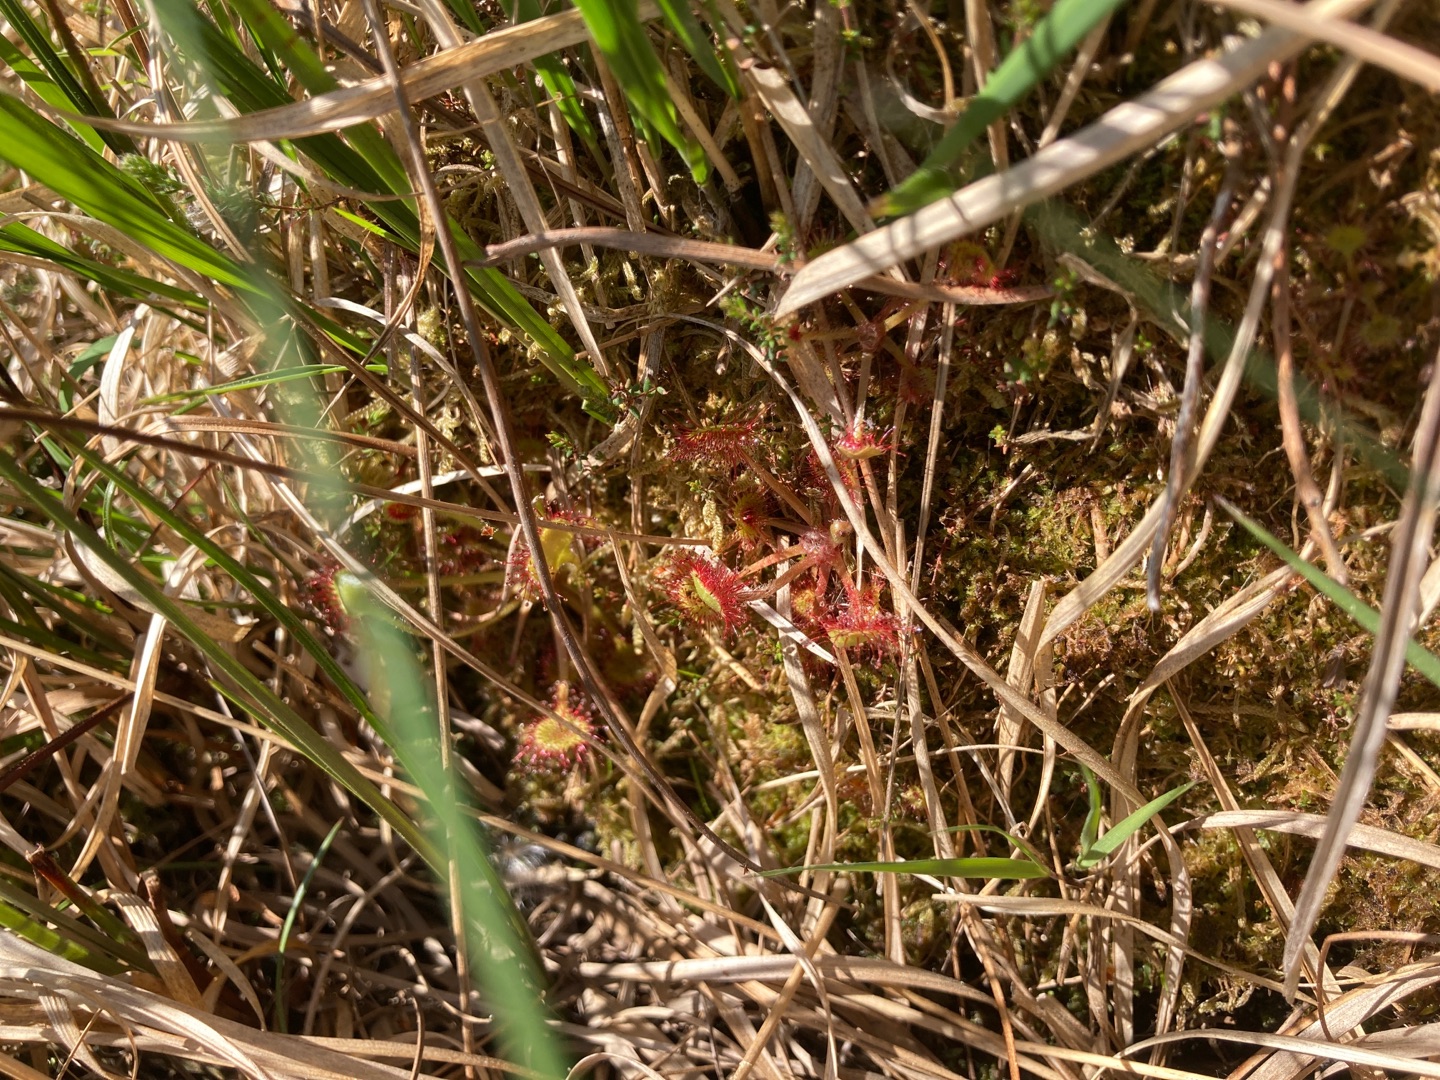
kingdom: Plantae
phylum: Tracheophyta
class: Magnoliopsida
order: Caryophyllales
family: Droseraceae
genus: Drosera
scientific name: Drosera rotundifolia
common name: Rundbladet soldug
